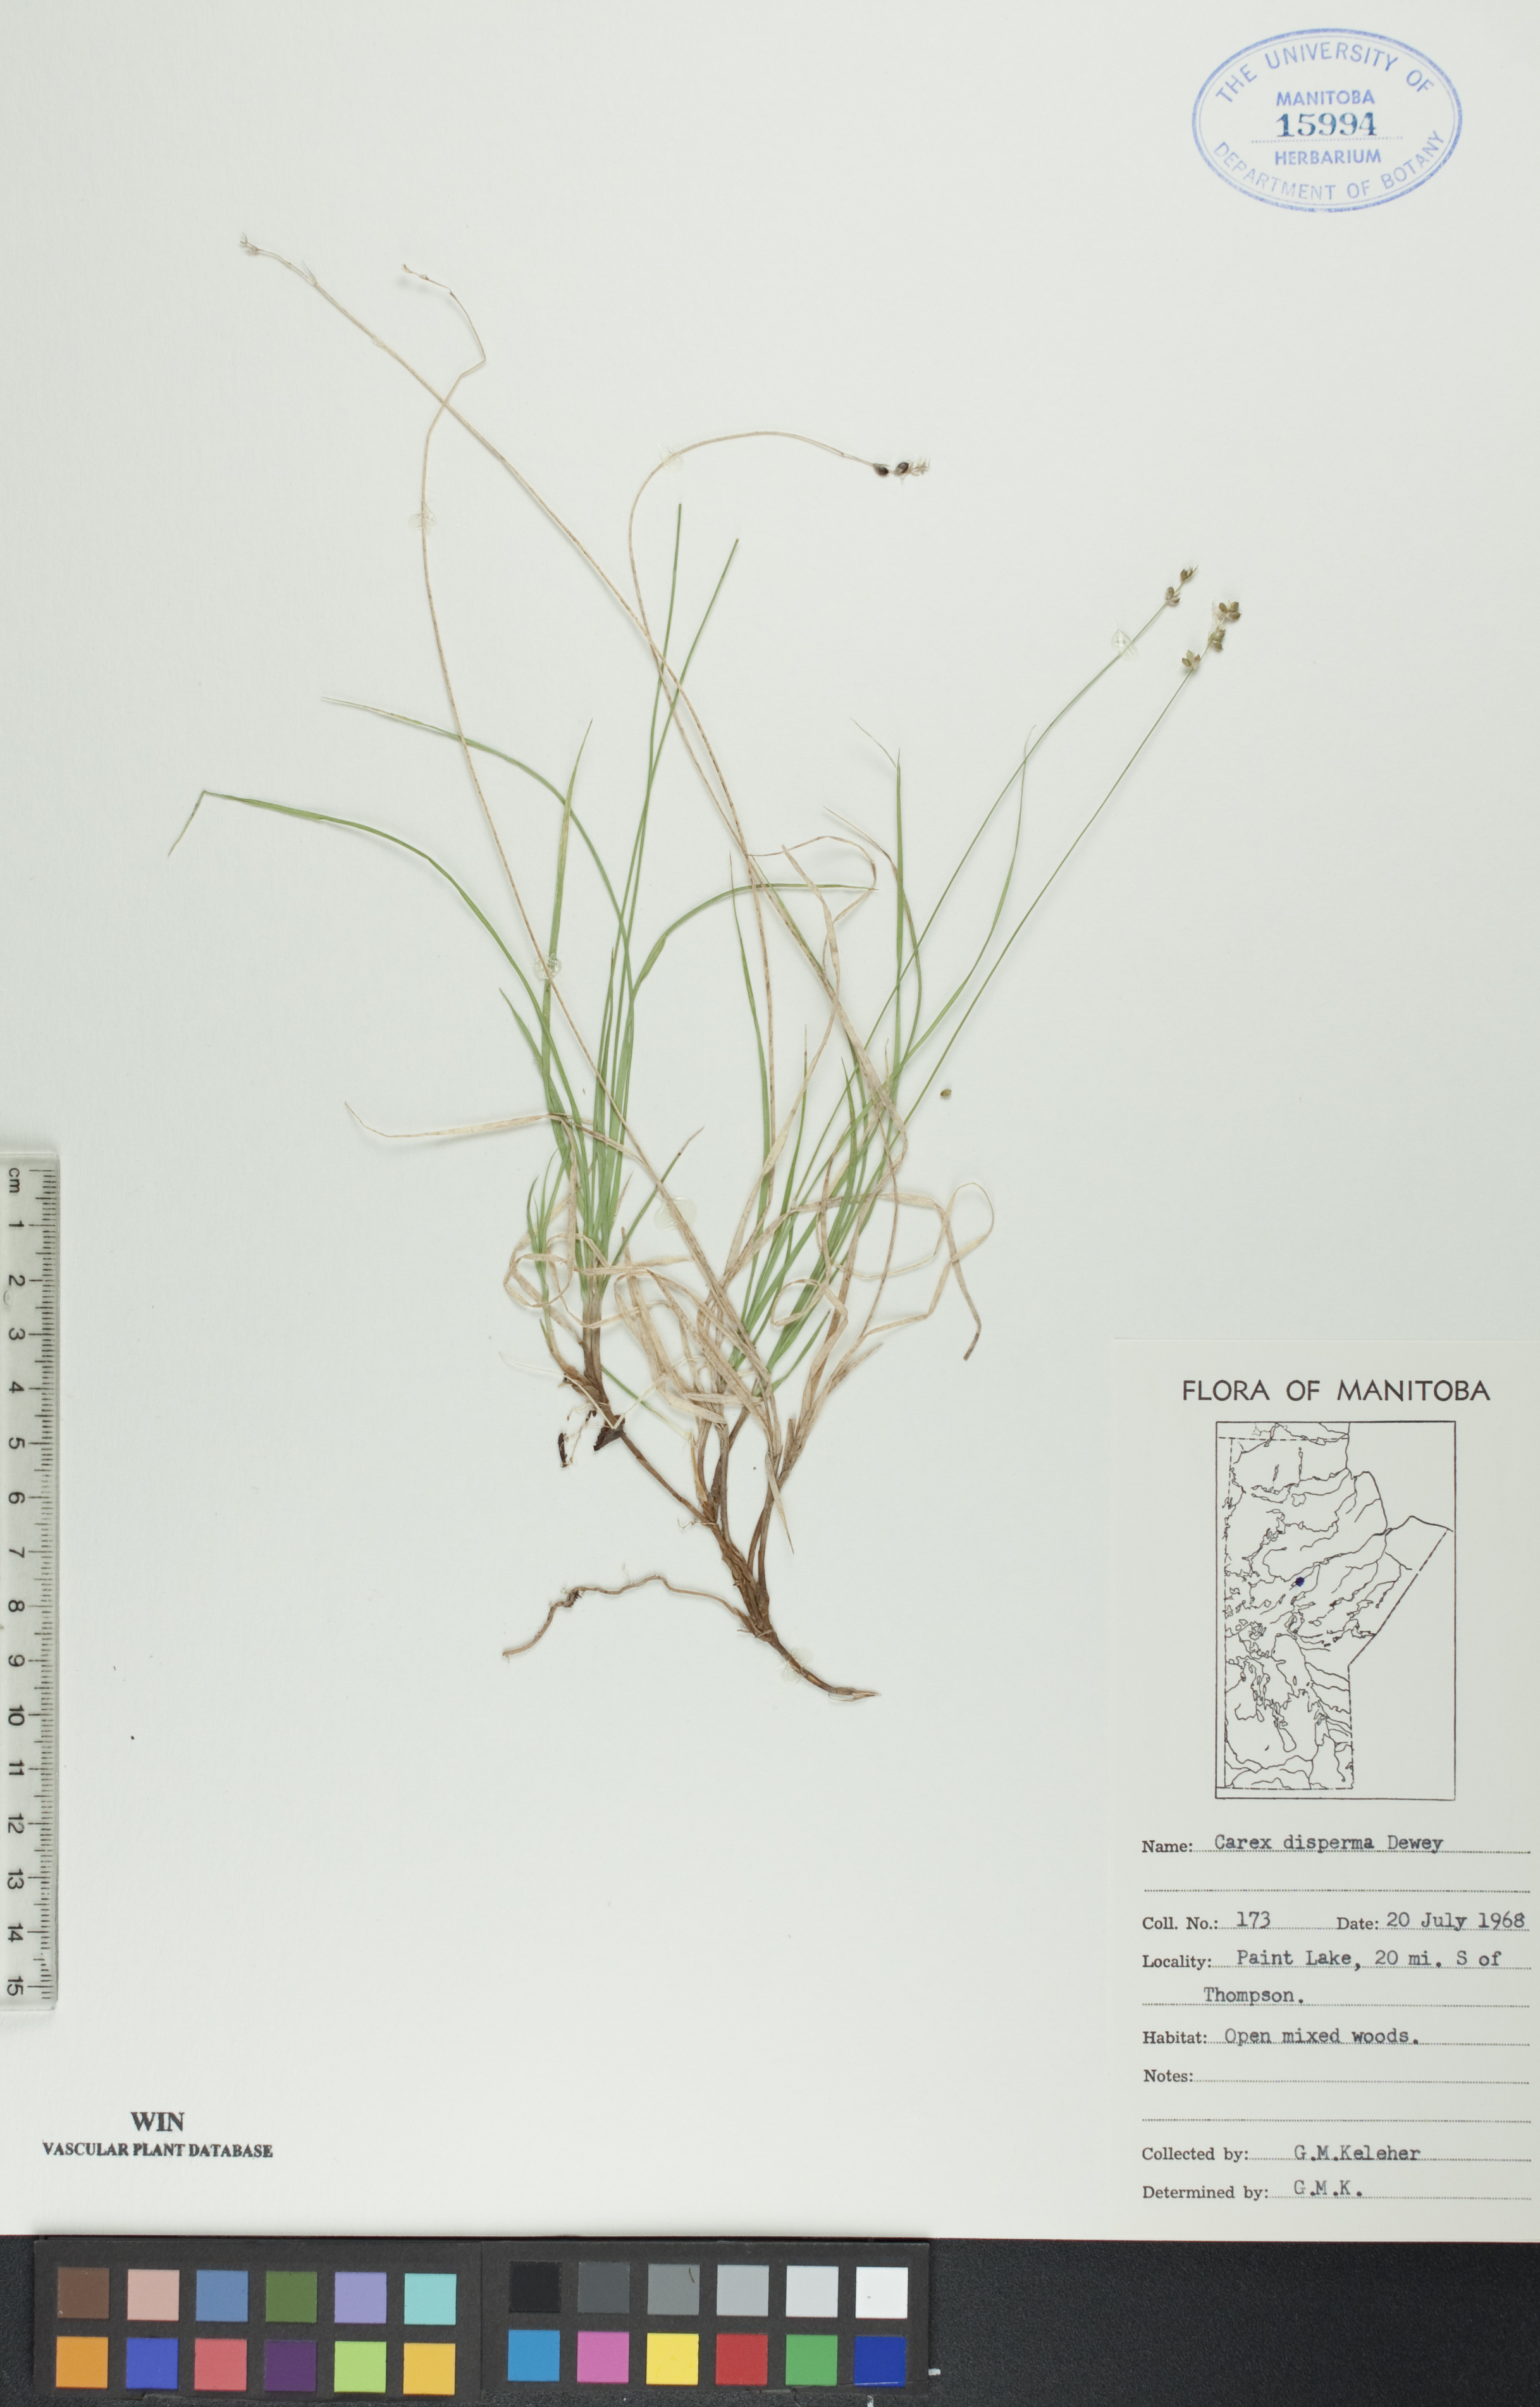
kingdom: Plantae
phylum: Tracheophyta
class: Liliopsida
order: Poales
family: Cyperaceae
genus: Carex
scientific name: Carex disperma
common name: Short-leaved sedge
